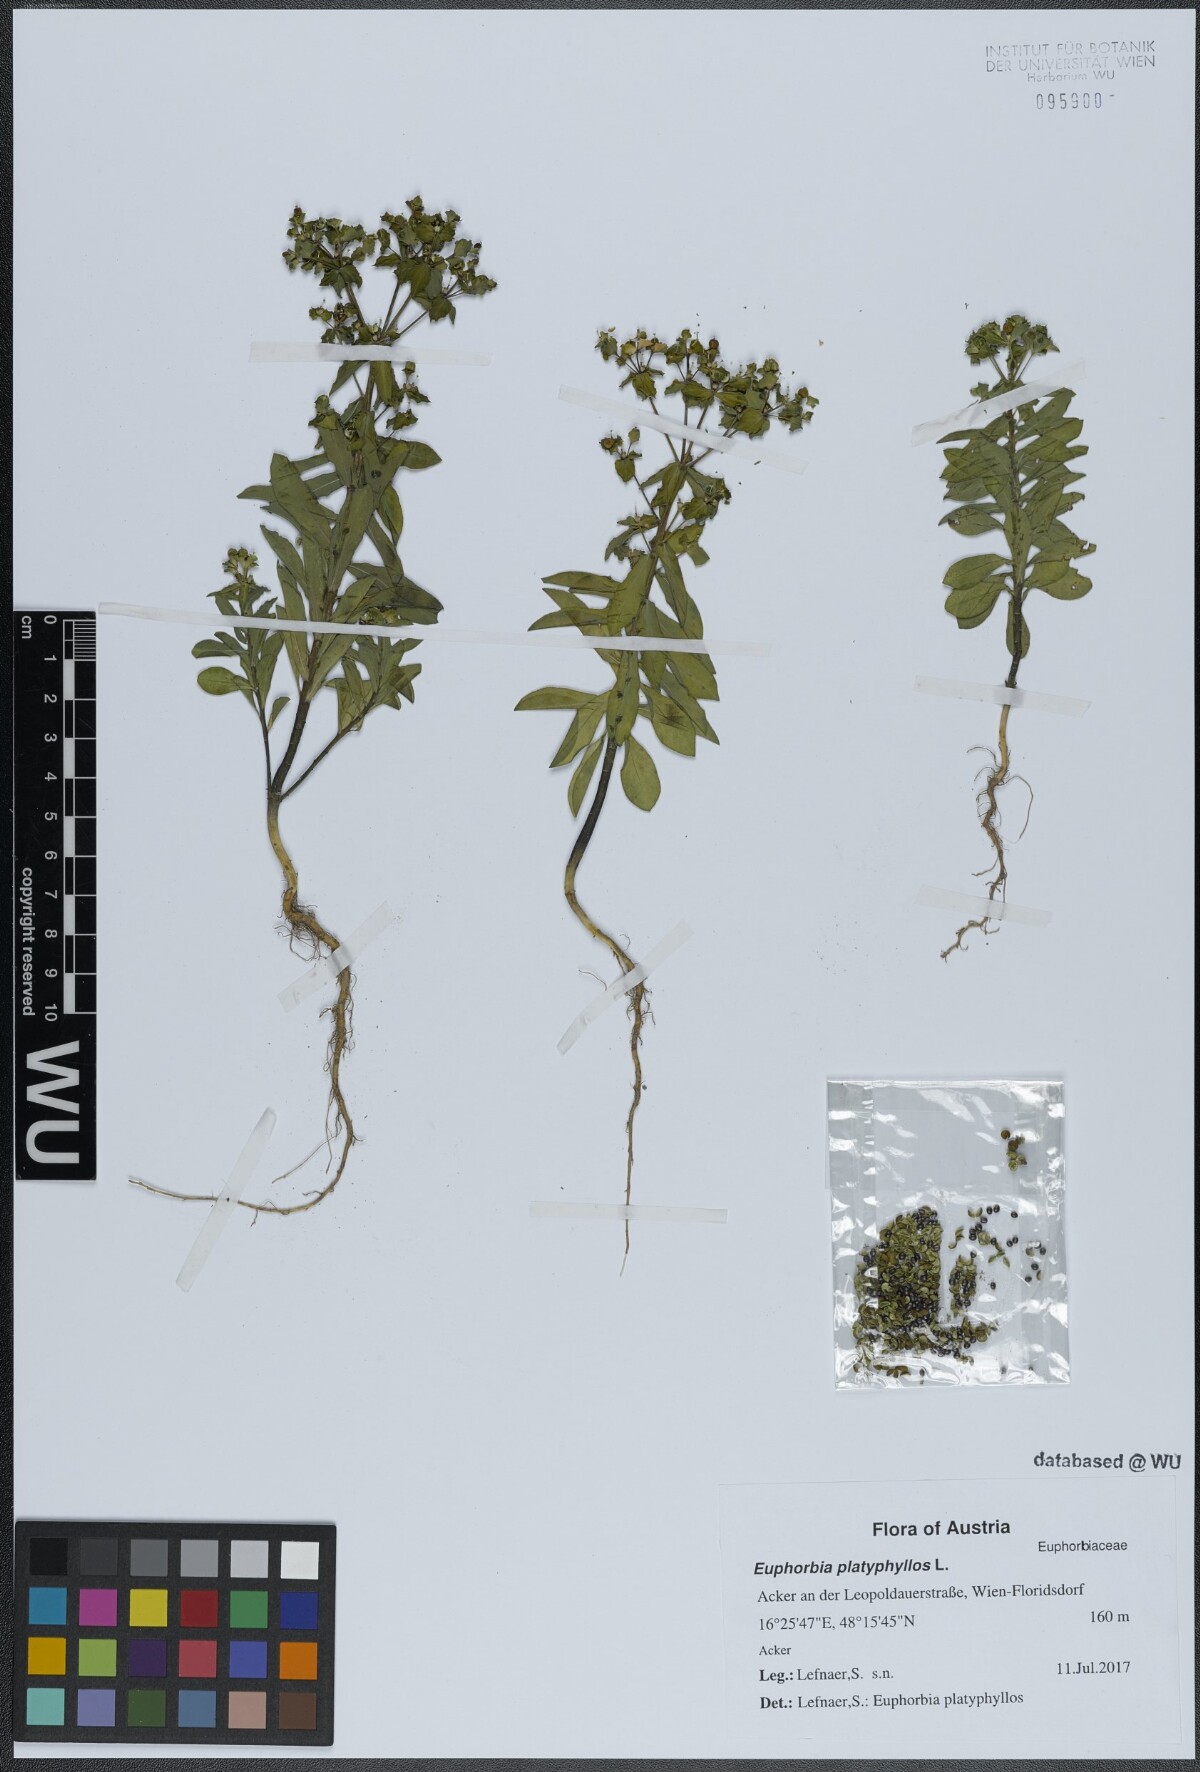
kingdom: Plantae
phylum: Tracheophyta
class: Magnoliopsida
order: Malpighiales
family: Euphorbiaceae
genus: Euphorbia
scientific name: Euphorbia platyphyllos
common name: Broad-leaved spurge
